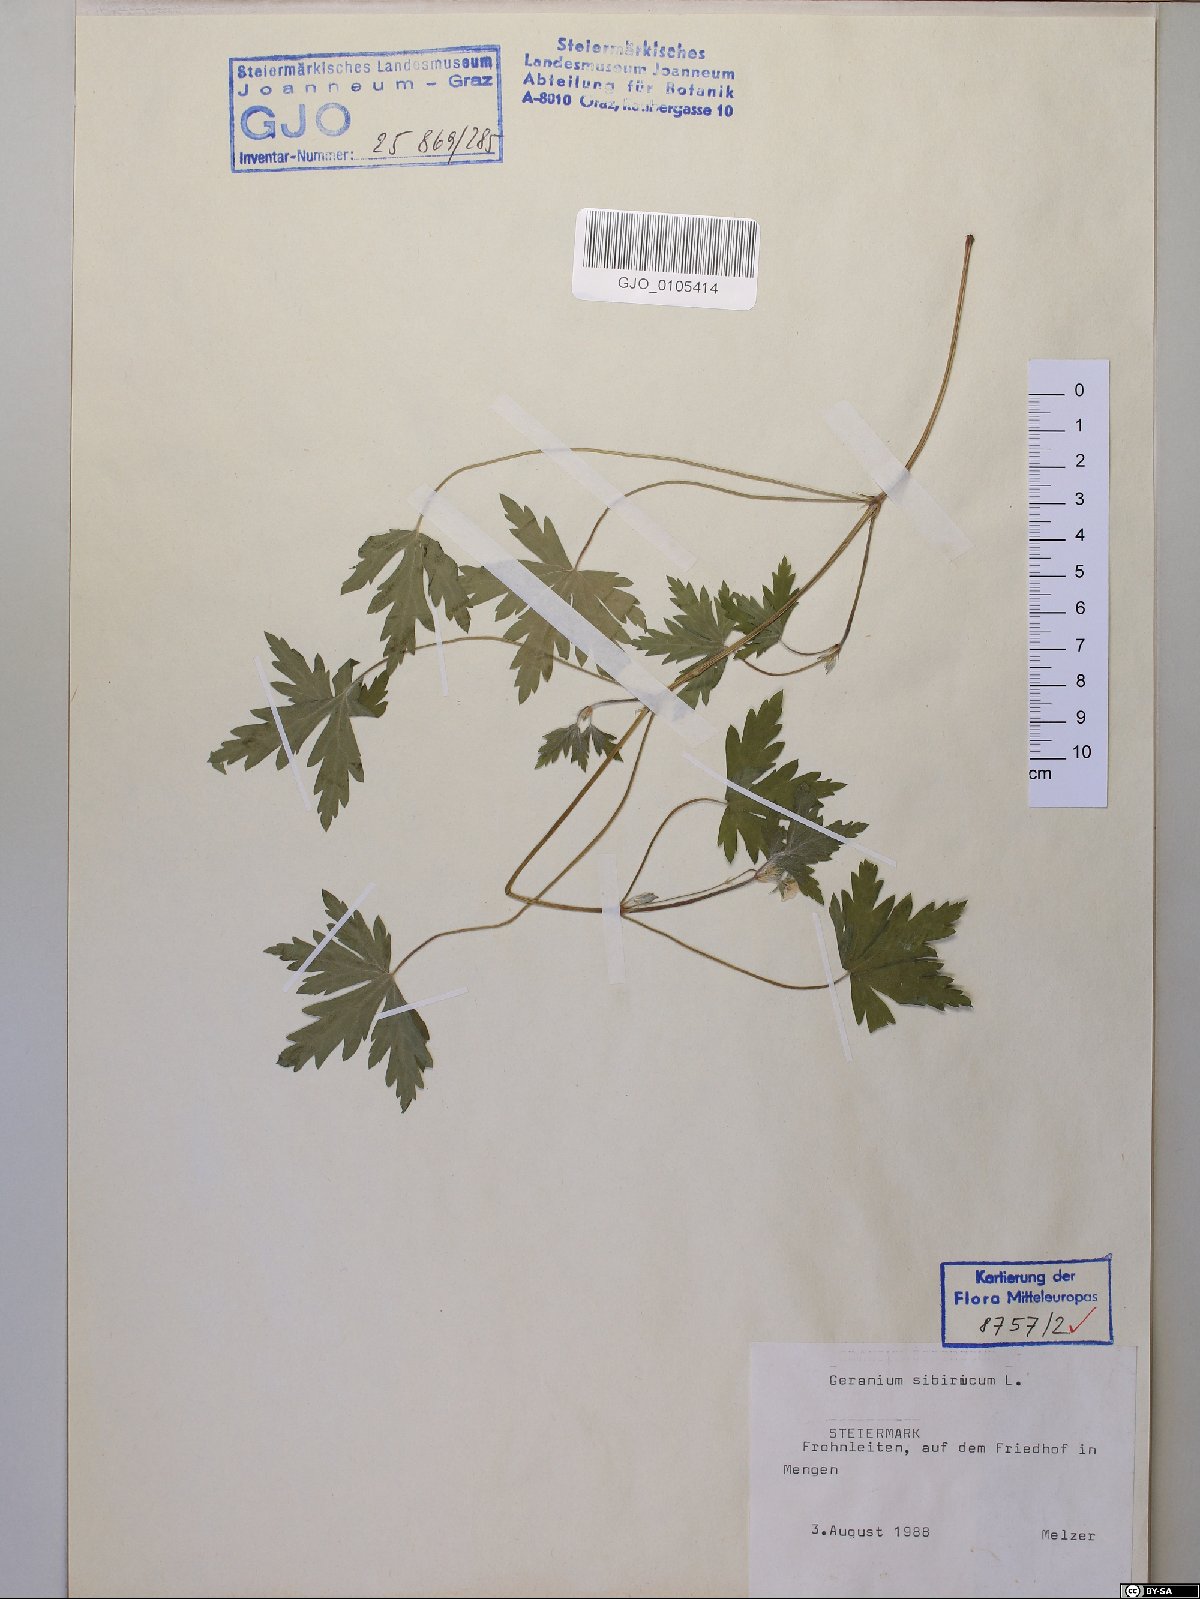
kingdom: Plantae
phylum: Tracheophyta
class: Magnoliopsida
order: Geraniales
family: Geraniaceae
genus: Geranium
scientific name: Geranium sibiricum
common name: Siberian crane's-bill
